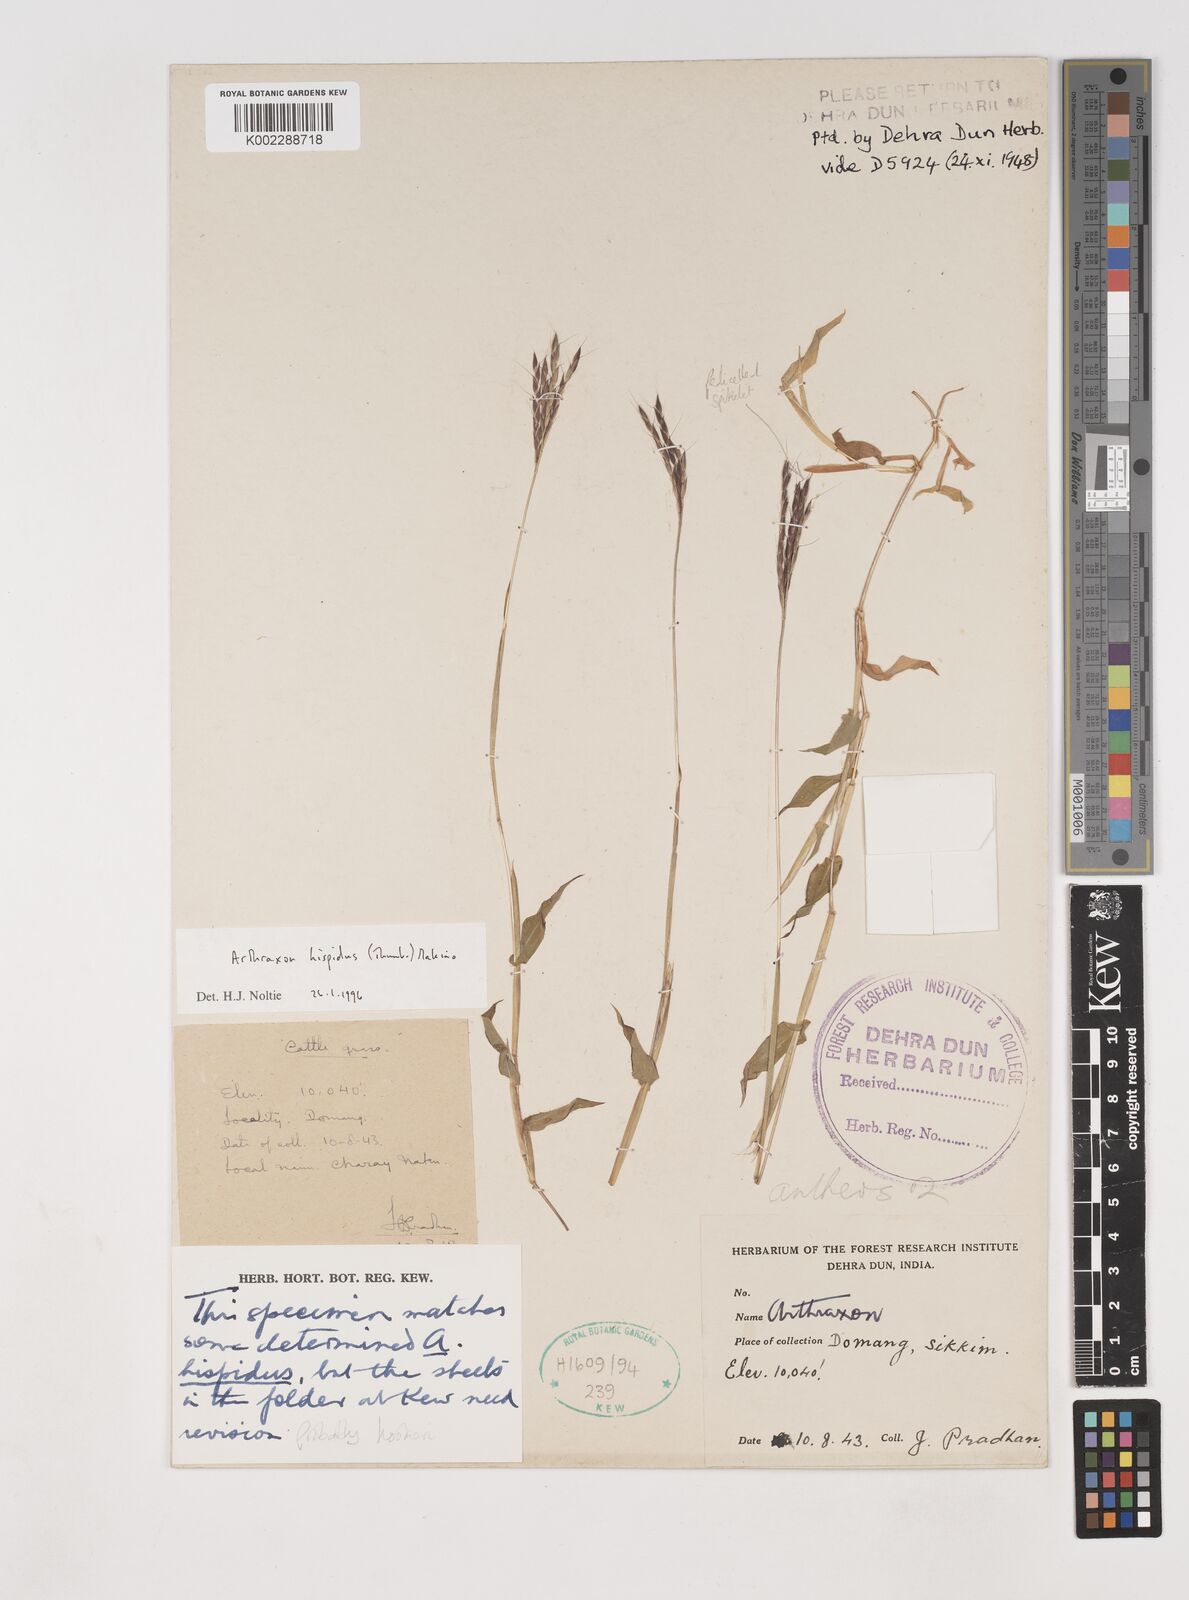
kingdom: Plantae
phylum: Tracheophyta
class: Liliopsida
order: Poales
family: Poaceae
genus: Arthraxon
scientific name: Arthraxon hispidus
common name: Small carpgrass
